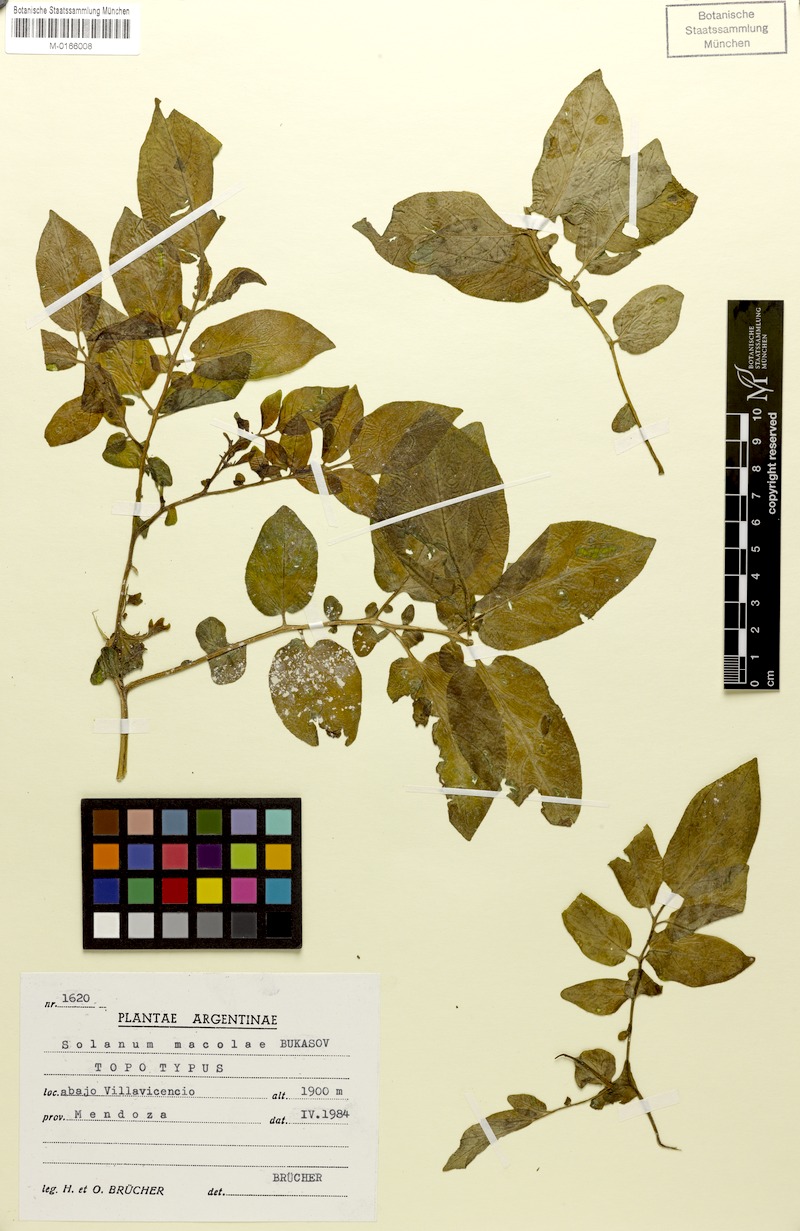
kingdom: Plantae
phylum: Tracheophyta
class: Magnoliopsida
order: Solanales
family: Solanaceae
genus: Solanum
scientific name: Solanum kurtzianum
